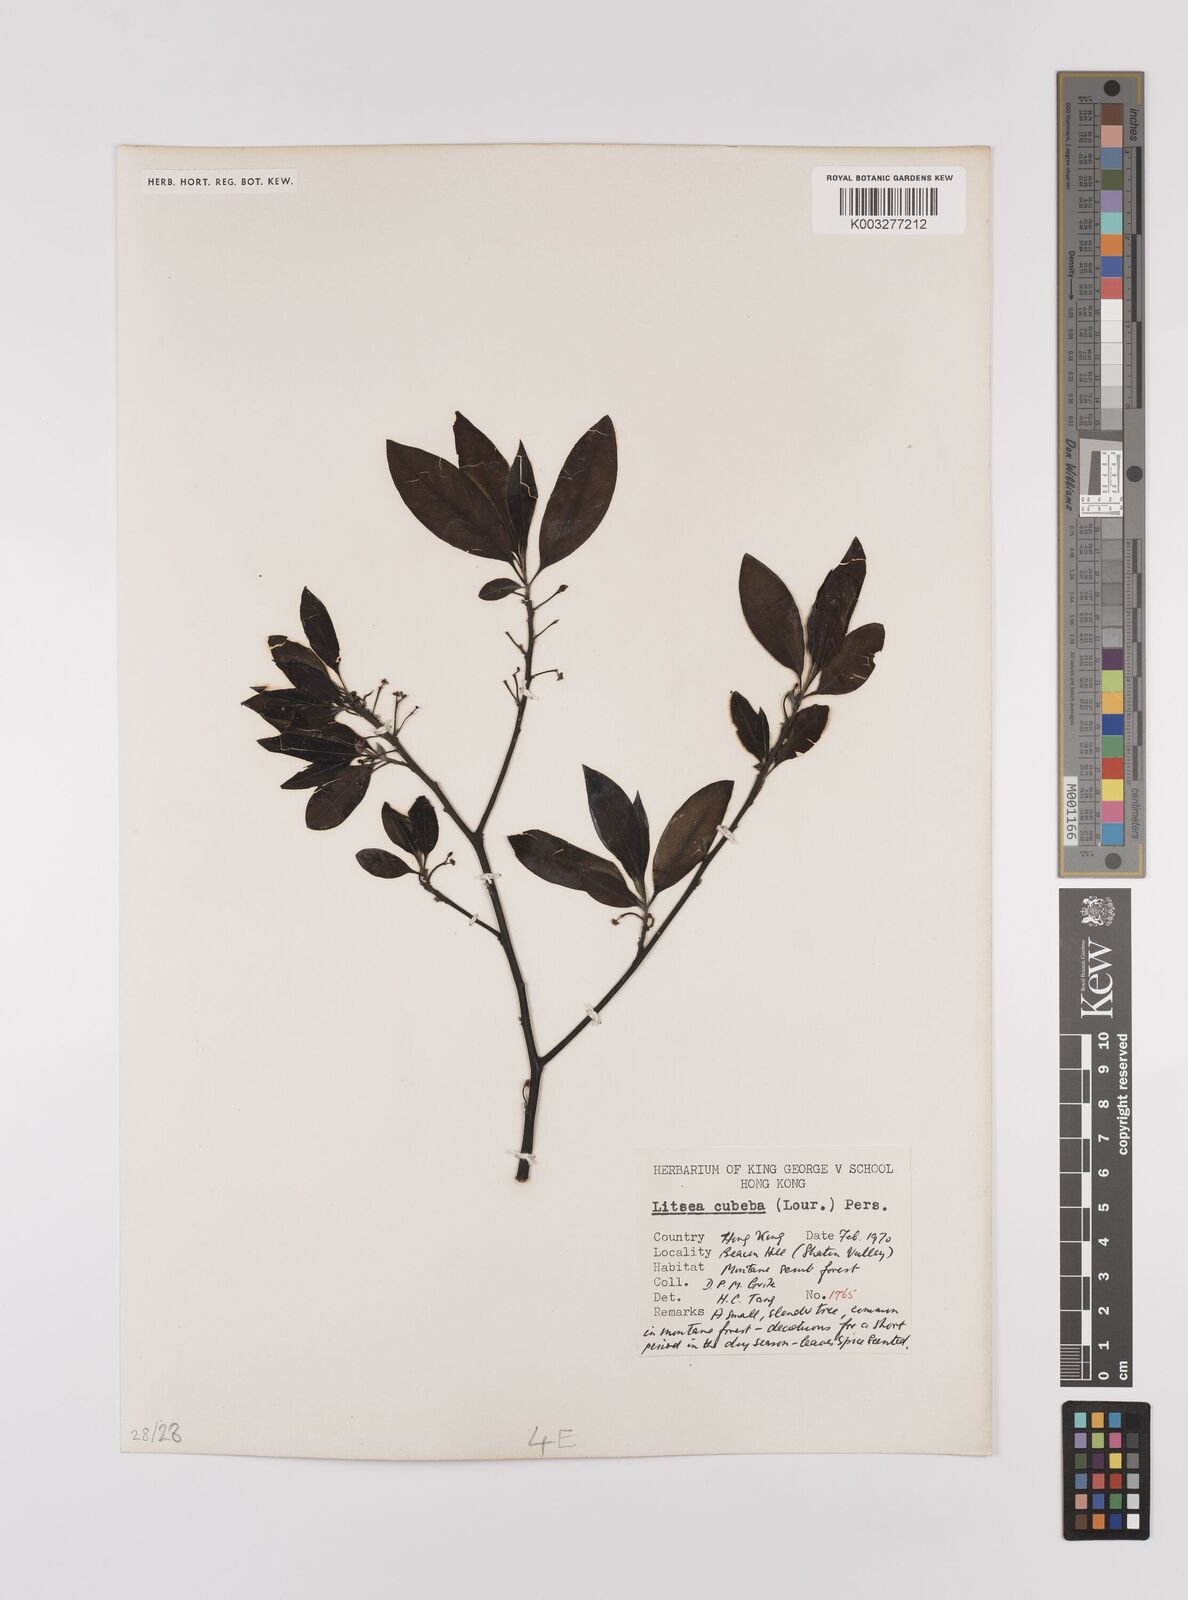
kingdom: Plantae
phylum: Tracheophyta
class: Magnoliopsida
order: Laurales
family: Lauraceae
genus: Litsea
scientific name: Litsea cubeba
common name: Mountain-pepper
